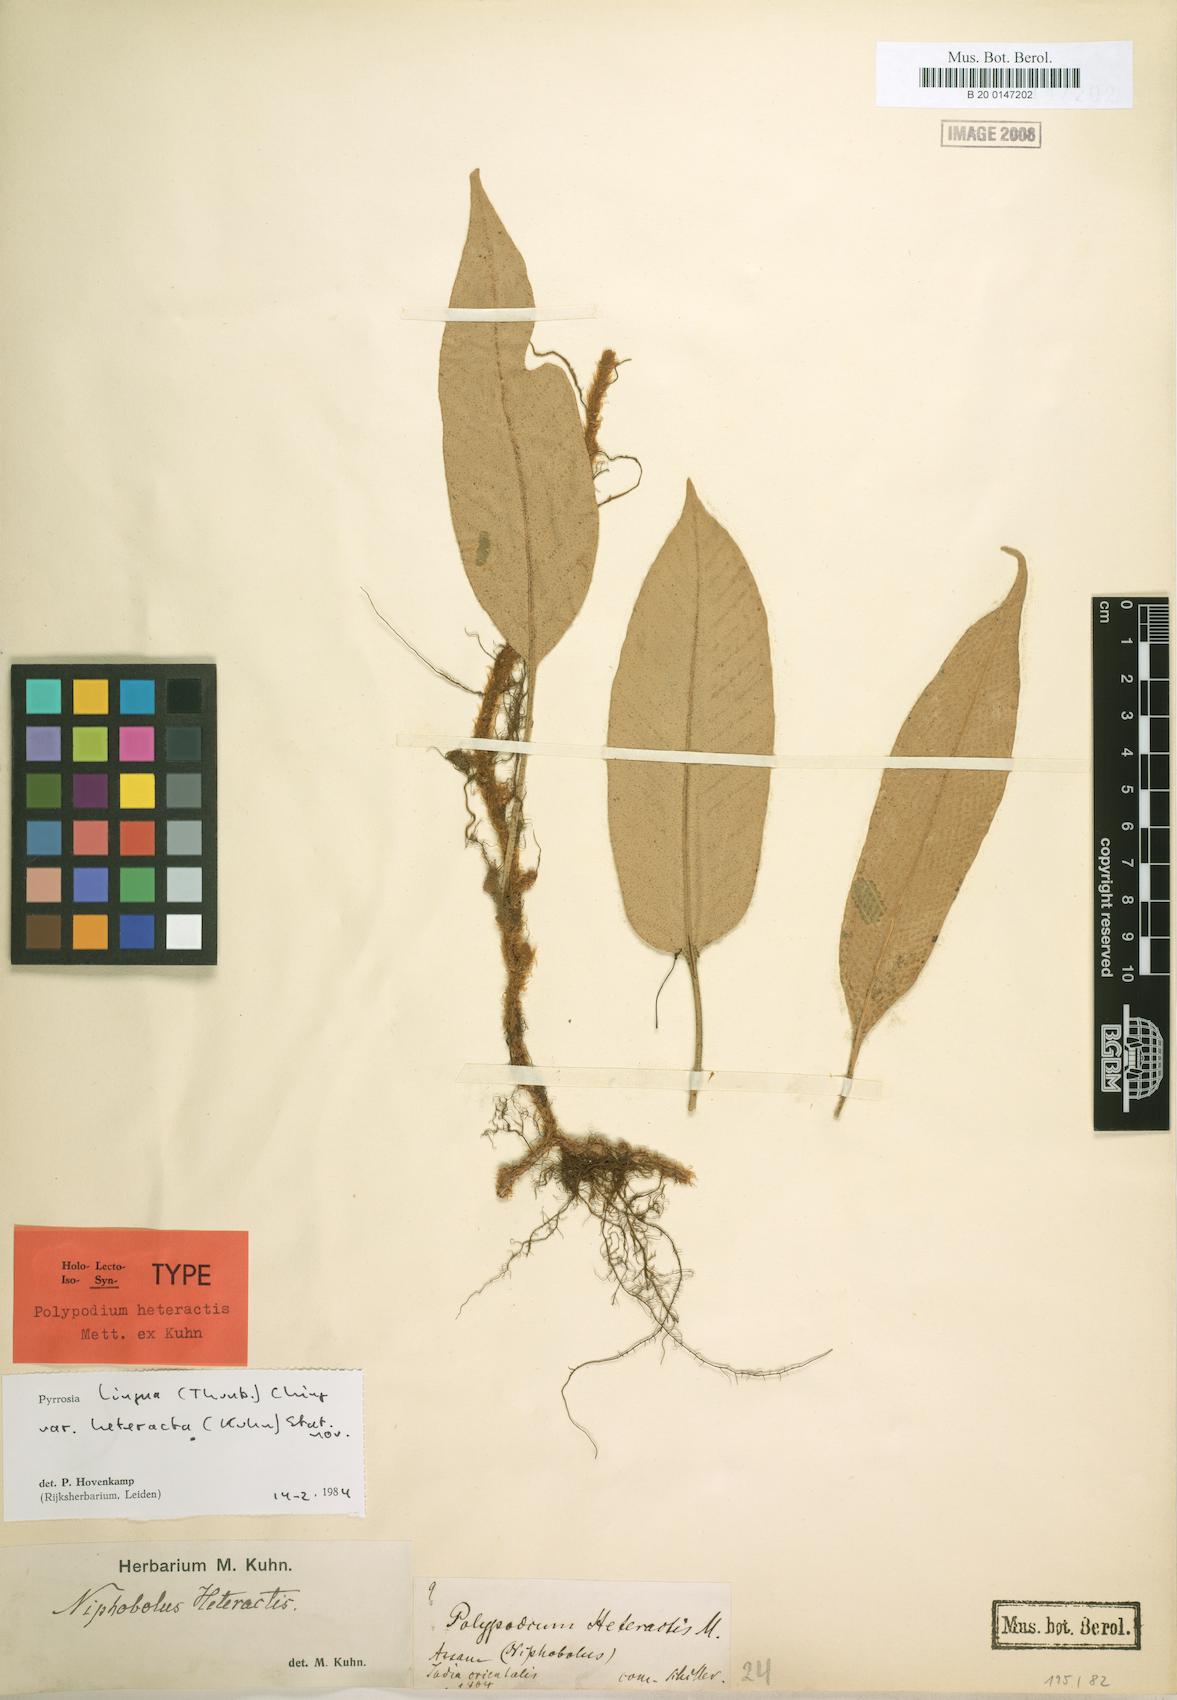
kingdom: Plantae
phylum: Tracheophyta
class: Polypodiopsida
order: Polypodiales
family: Polypodiaceae
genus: Pyrrosia
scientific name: Pyrrosia heteractis
